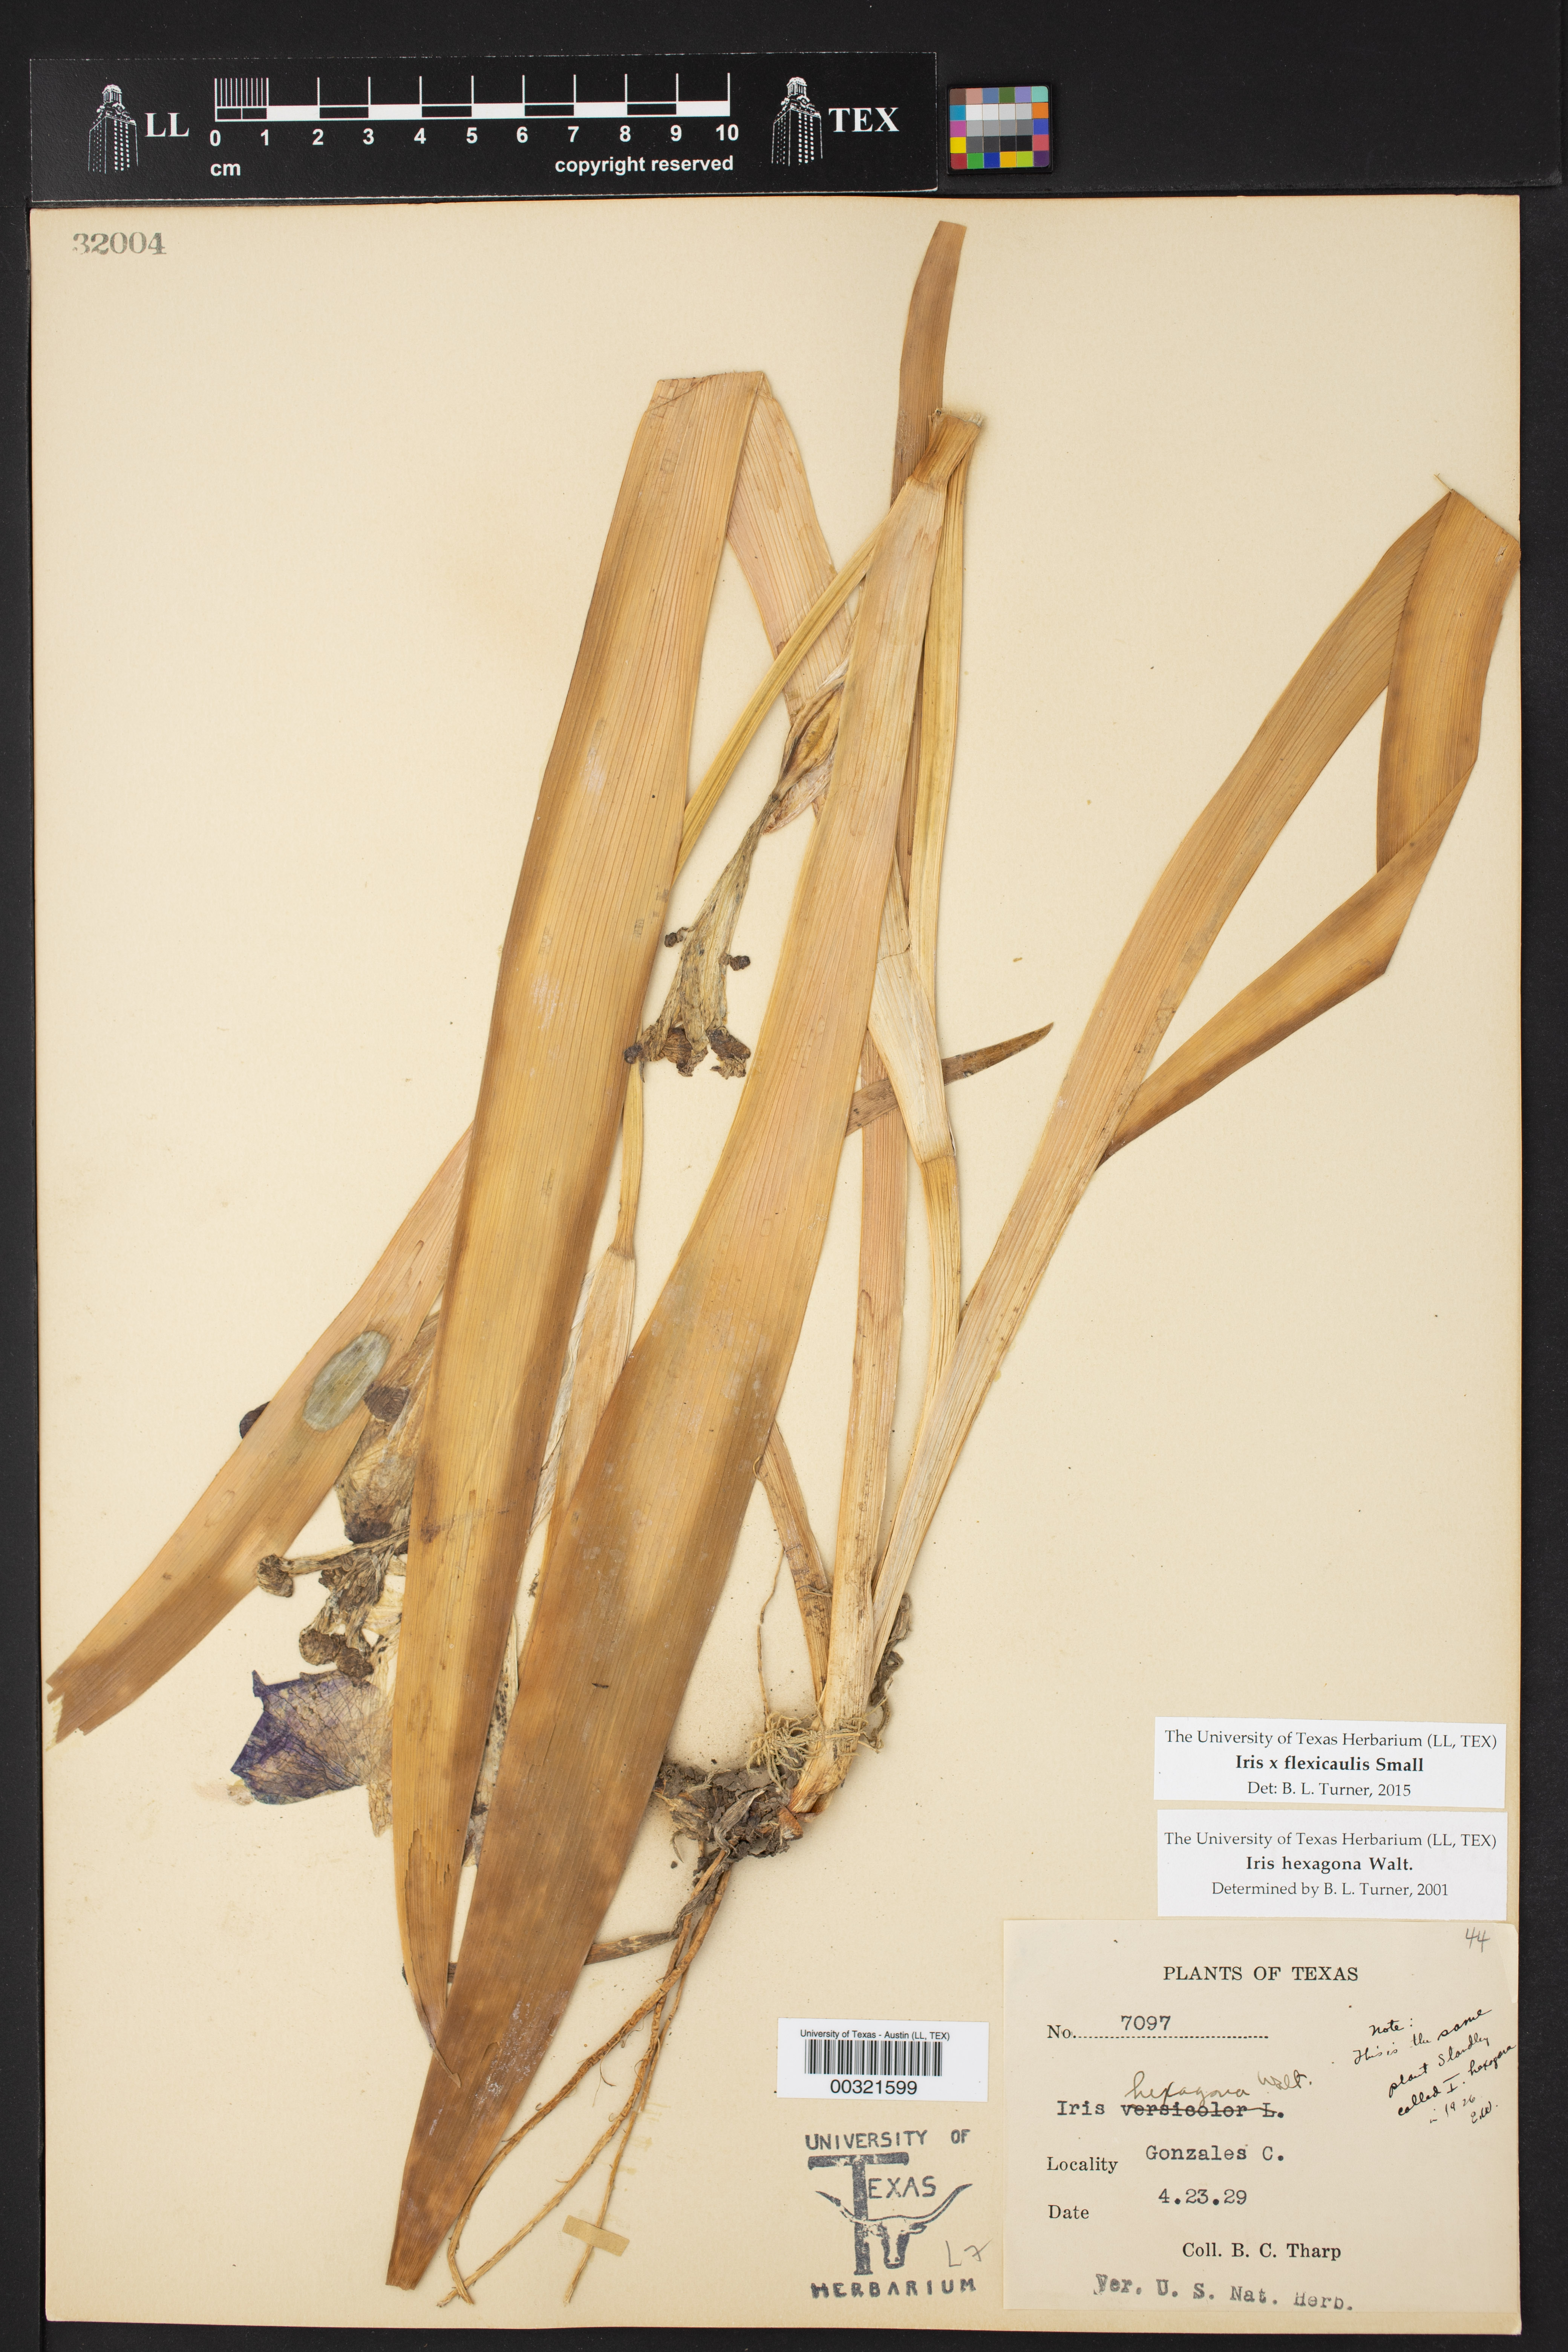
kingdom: Plantae
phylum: Tracheophyta
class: Liliopsida
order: Asparagales
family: Iridaceae
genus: Iris
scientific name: Iris flexicaulis
